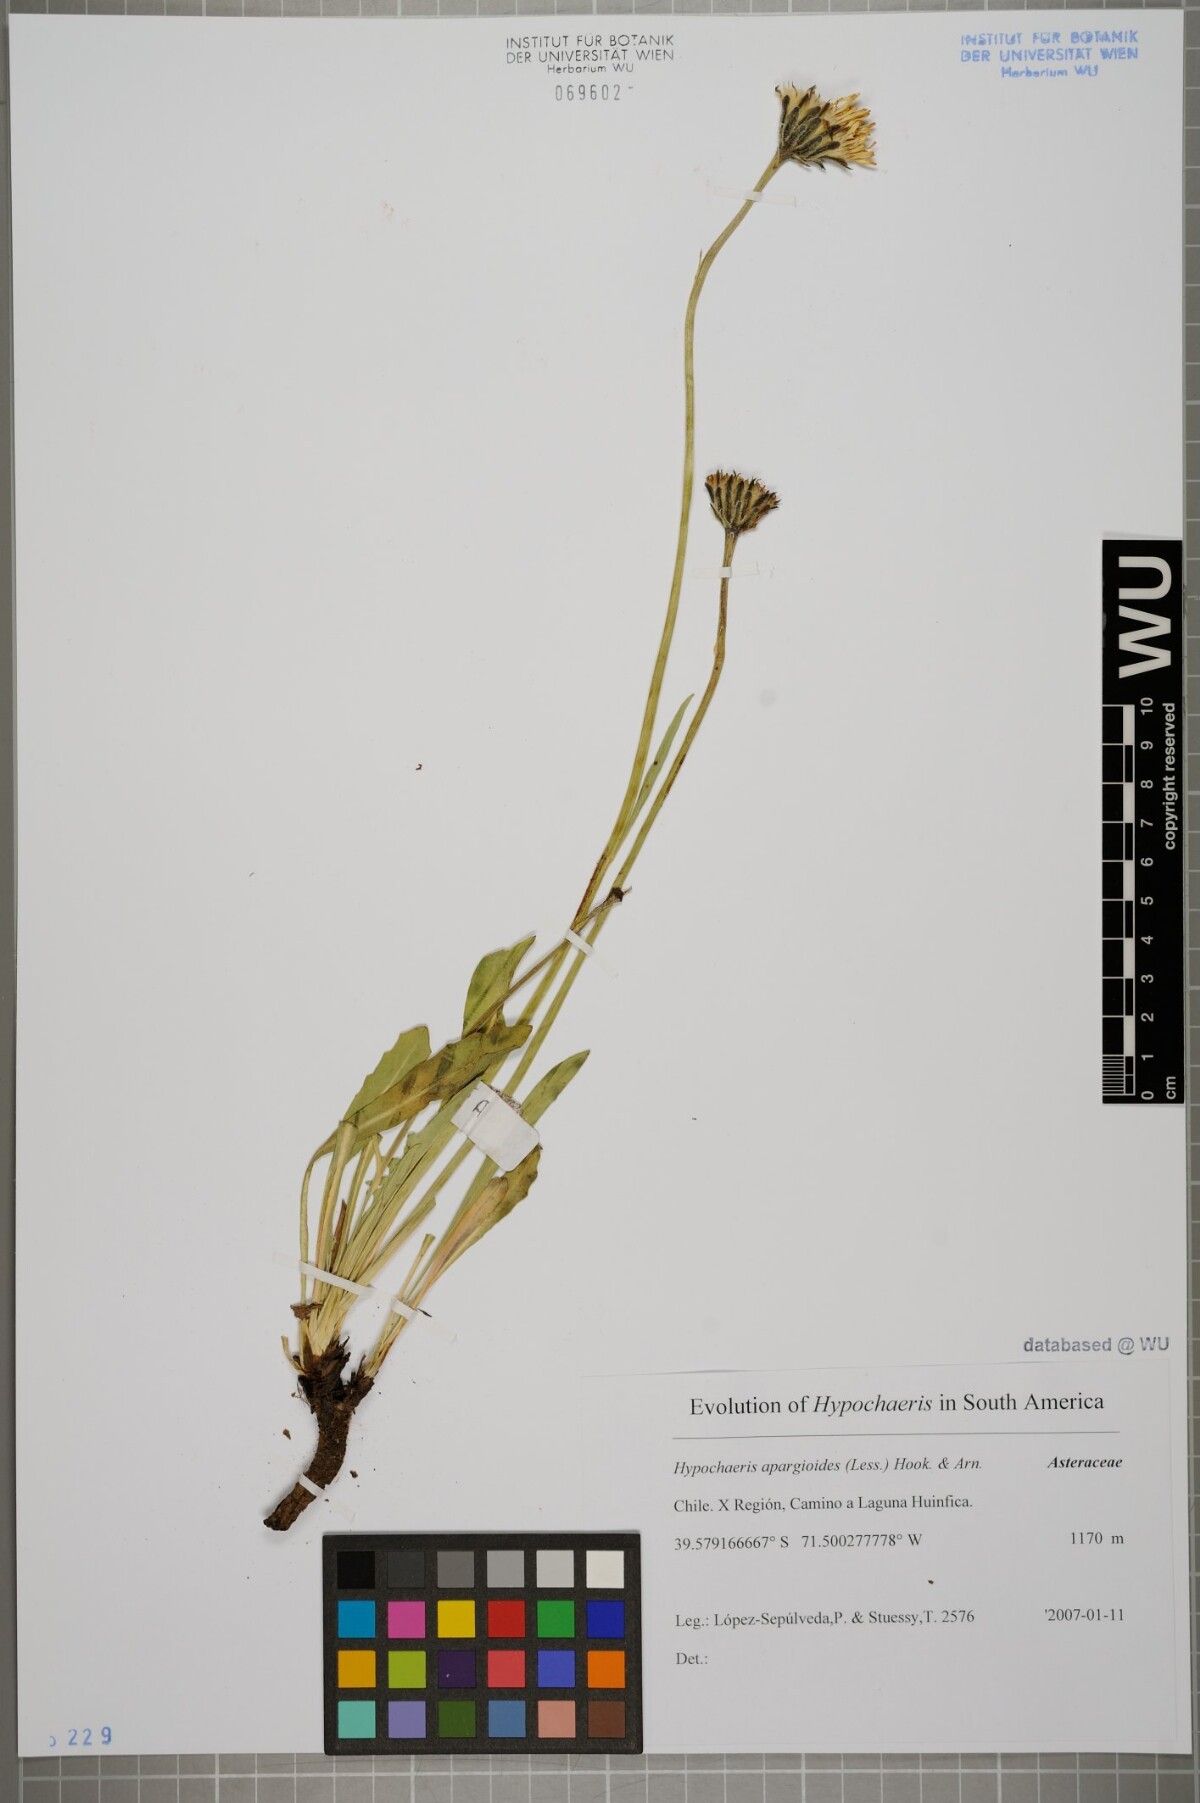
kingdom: Plantae
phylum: Tracheophyta
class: Magnoliopsida
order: Asterales
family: Asteraceae
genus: Hypochaeris
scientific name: Hypochaeris apargioides
